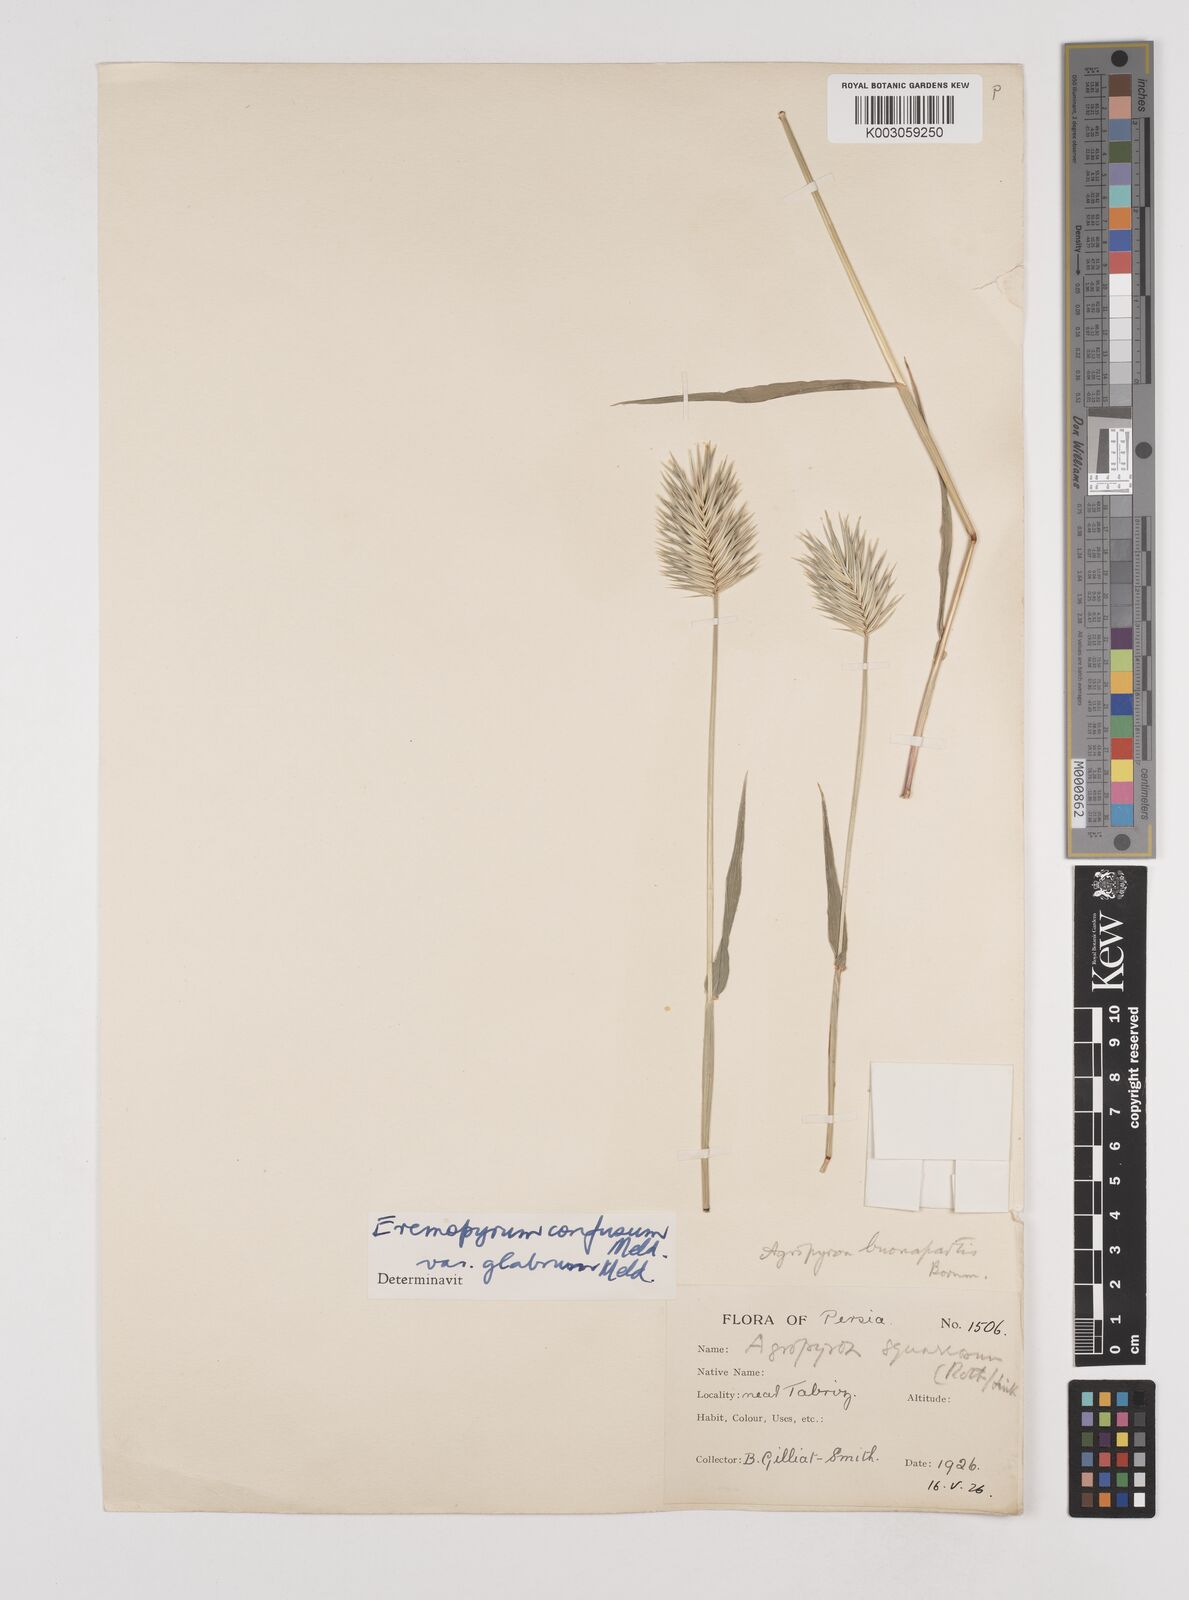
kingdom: Plantae
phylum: Tracheophyta
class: Liliopsida
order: Poales
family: Poaceae
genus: Eremopyrum
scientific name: Eremopyrum bonaepartis
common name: Tapertip false wheatgrass
